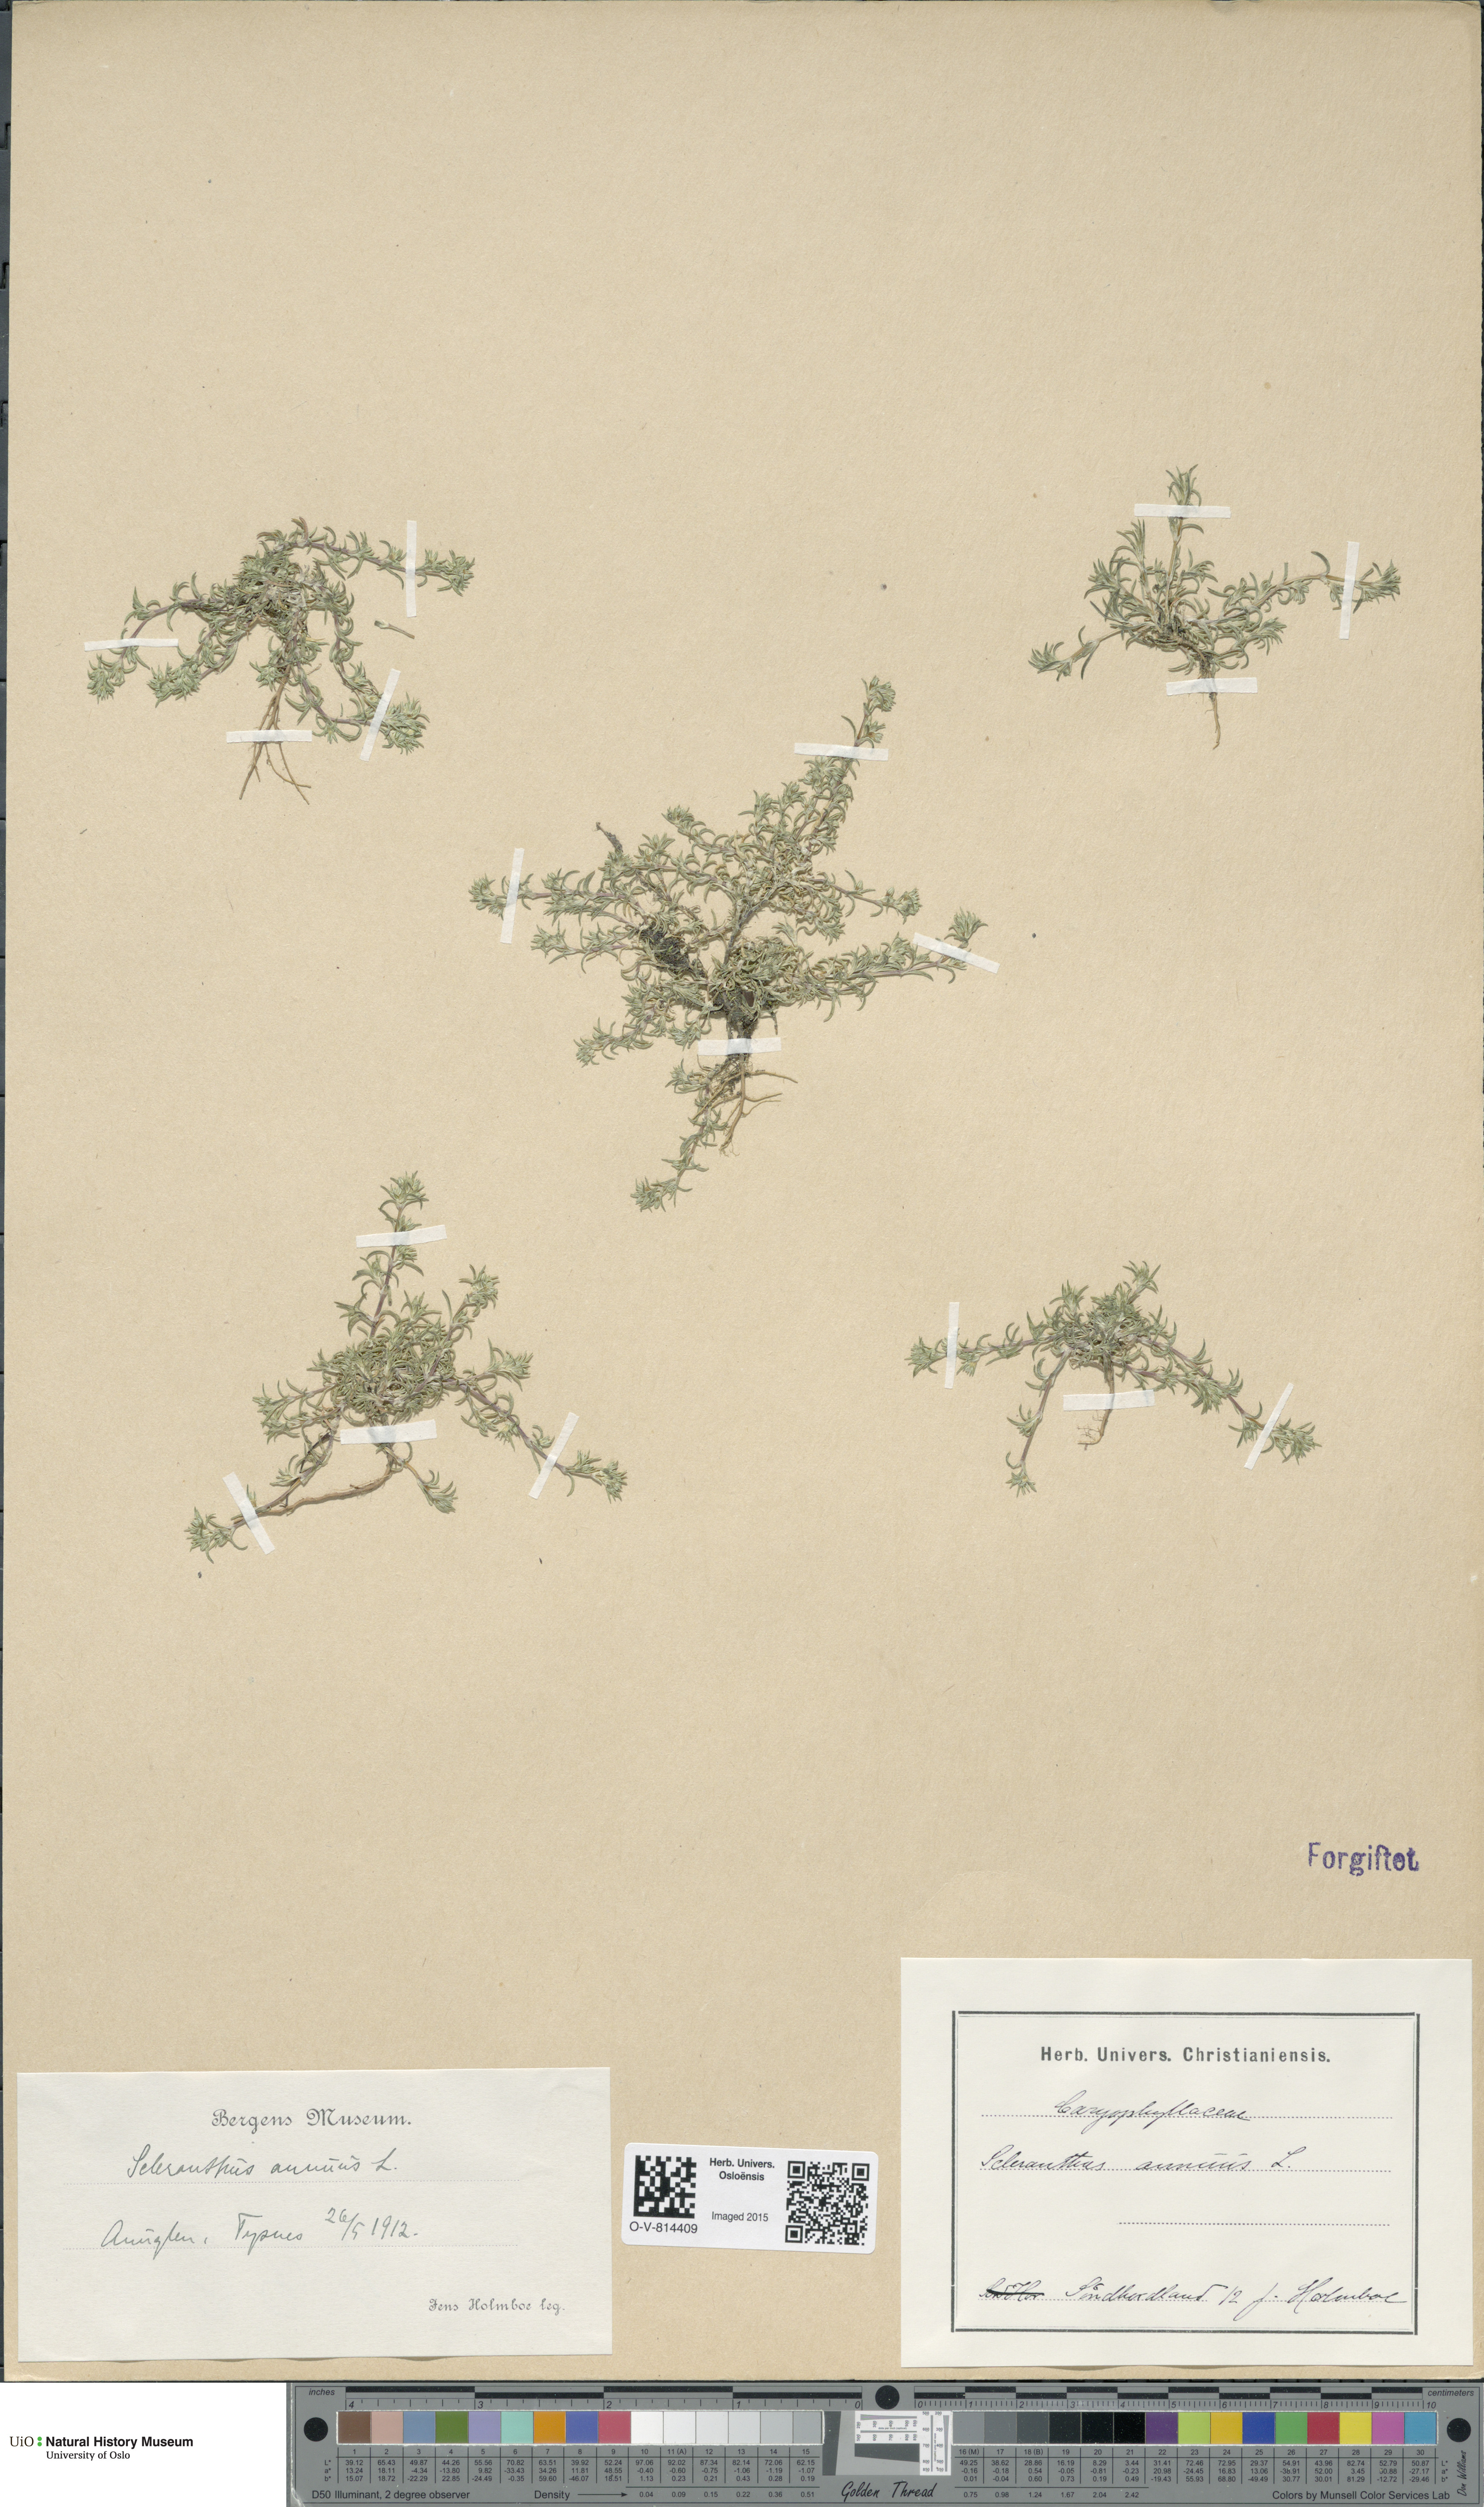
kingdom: Plantae
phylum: Tracheophyta
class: Magnoliopsida
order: Caryophyllales
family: Caryophyllaceae
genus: Scleranthus
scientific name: Scleranthus annuus
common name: Annual knawel
